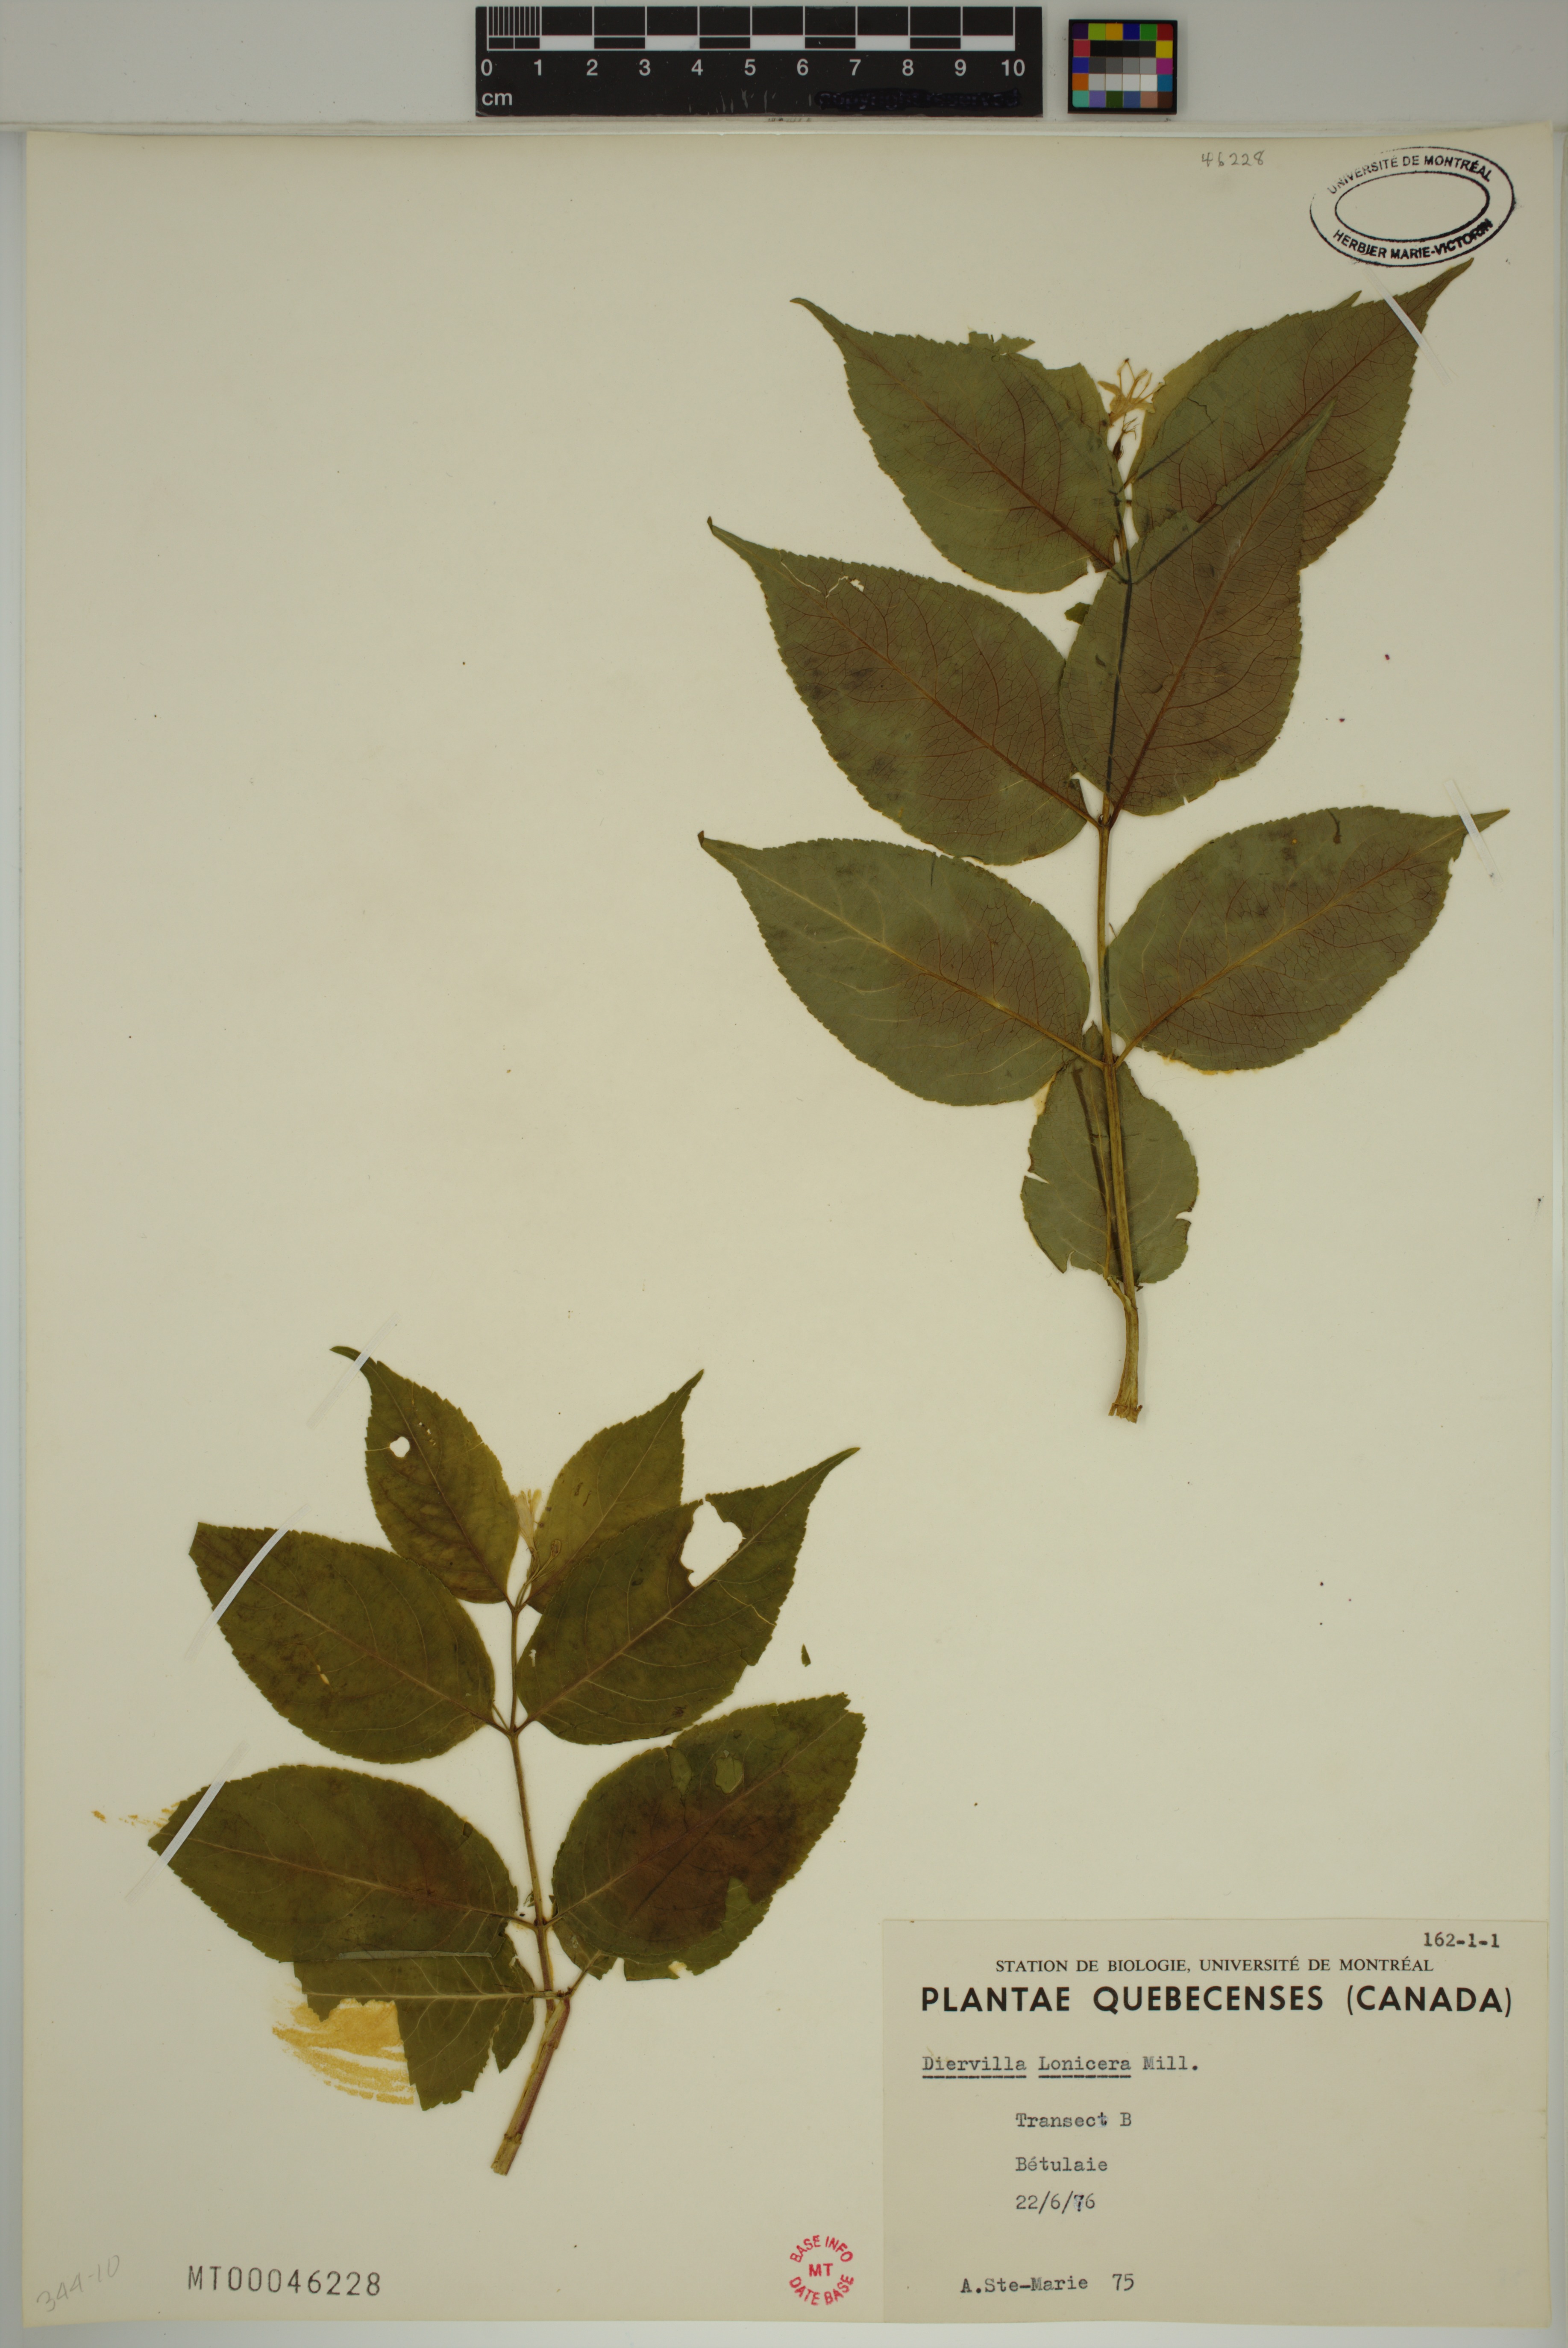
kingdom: Plantae
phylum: Tracheophyta
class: Magnoliopsida
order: Dipsacales
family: Caprifoliaceae
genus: Diervilla
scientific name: Diervilla lonicera
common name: Bush-honeysuckle
